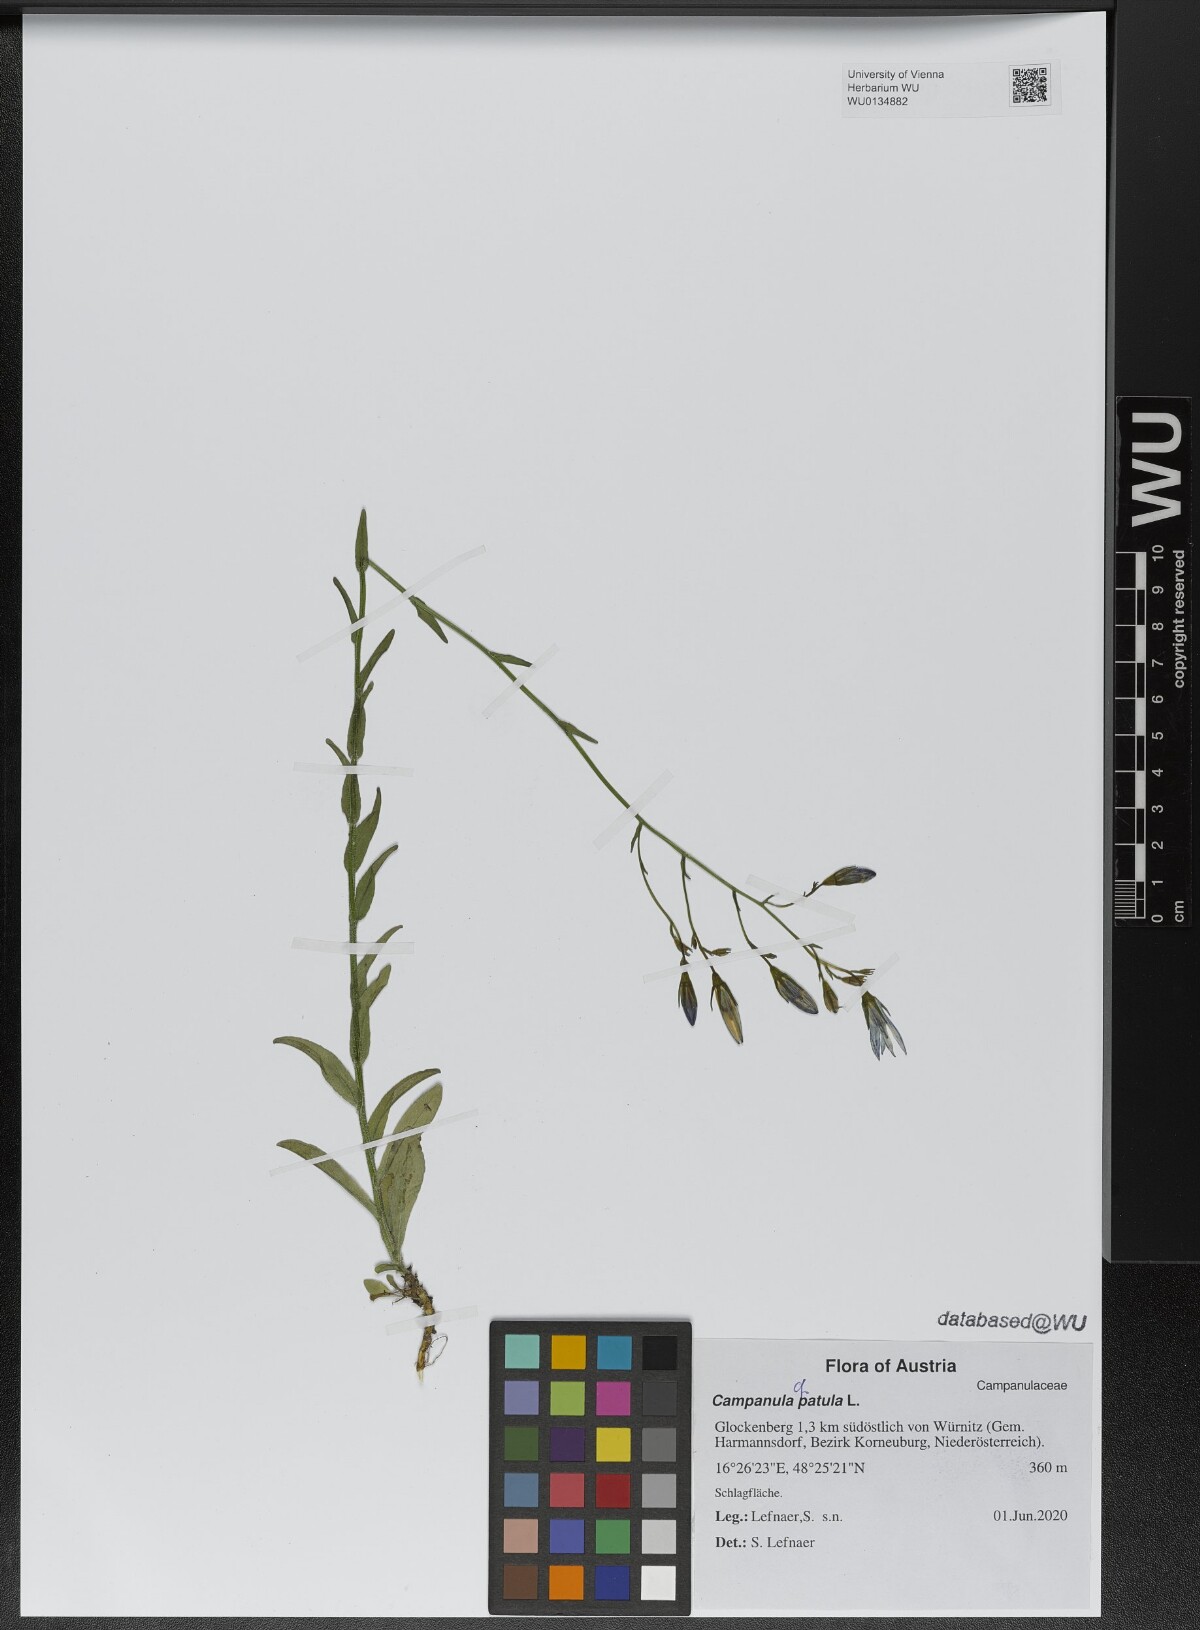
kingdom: Plantae
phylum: Tracheophyta
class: Magnoliopsida
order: Asterales
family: Campanulaceae
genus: Campanula
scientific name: Campanula patula
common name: Spreading bellflower
